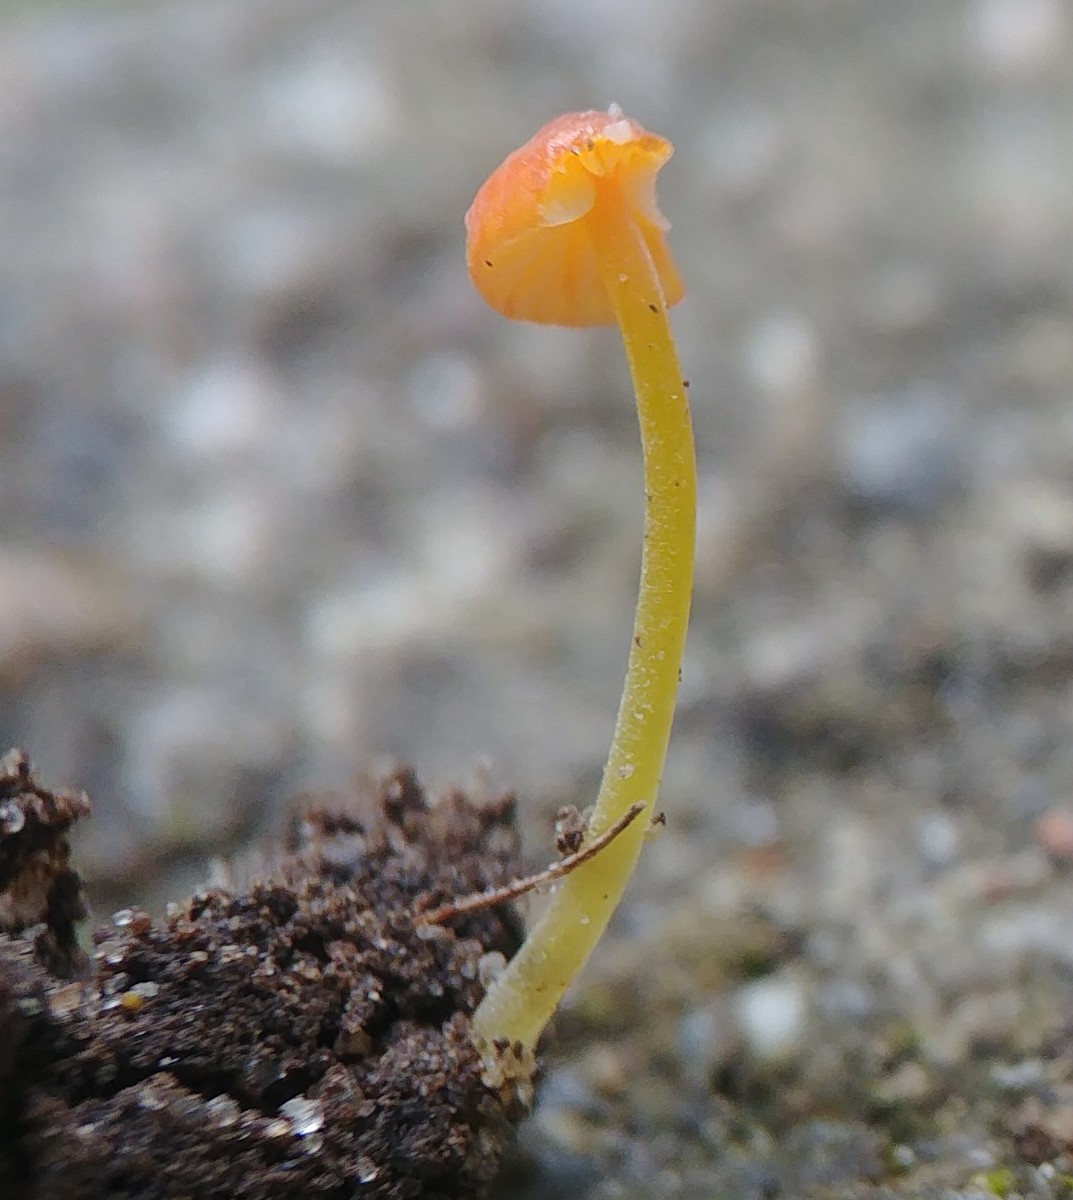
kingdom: Fungi
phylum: Basidiomycota
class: Agaricomycetes
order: Agaricales
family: Mycenaceae
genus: Mycena
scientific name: Mycena acicula
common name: orange huesvamp
